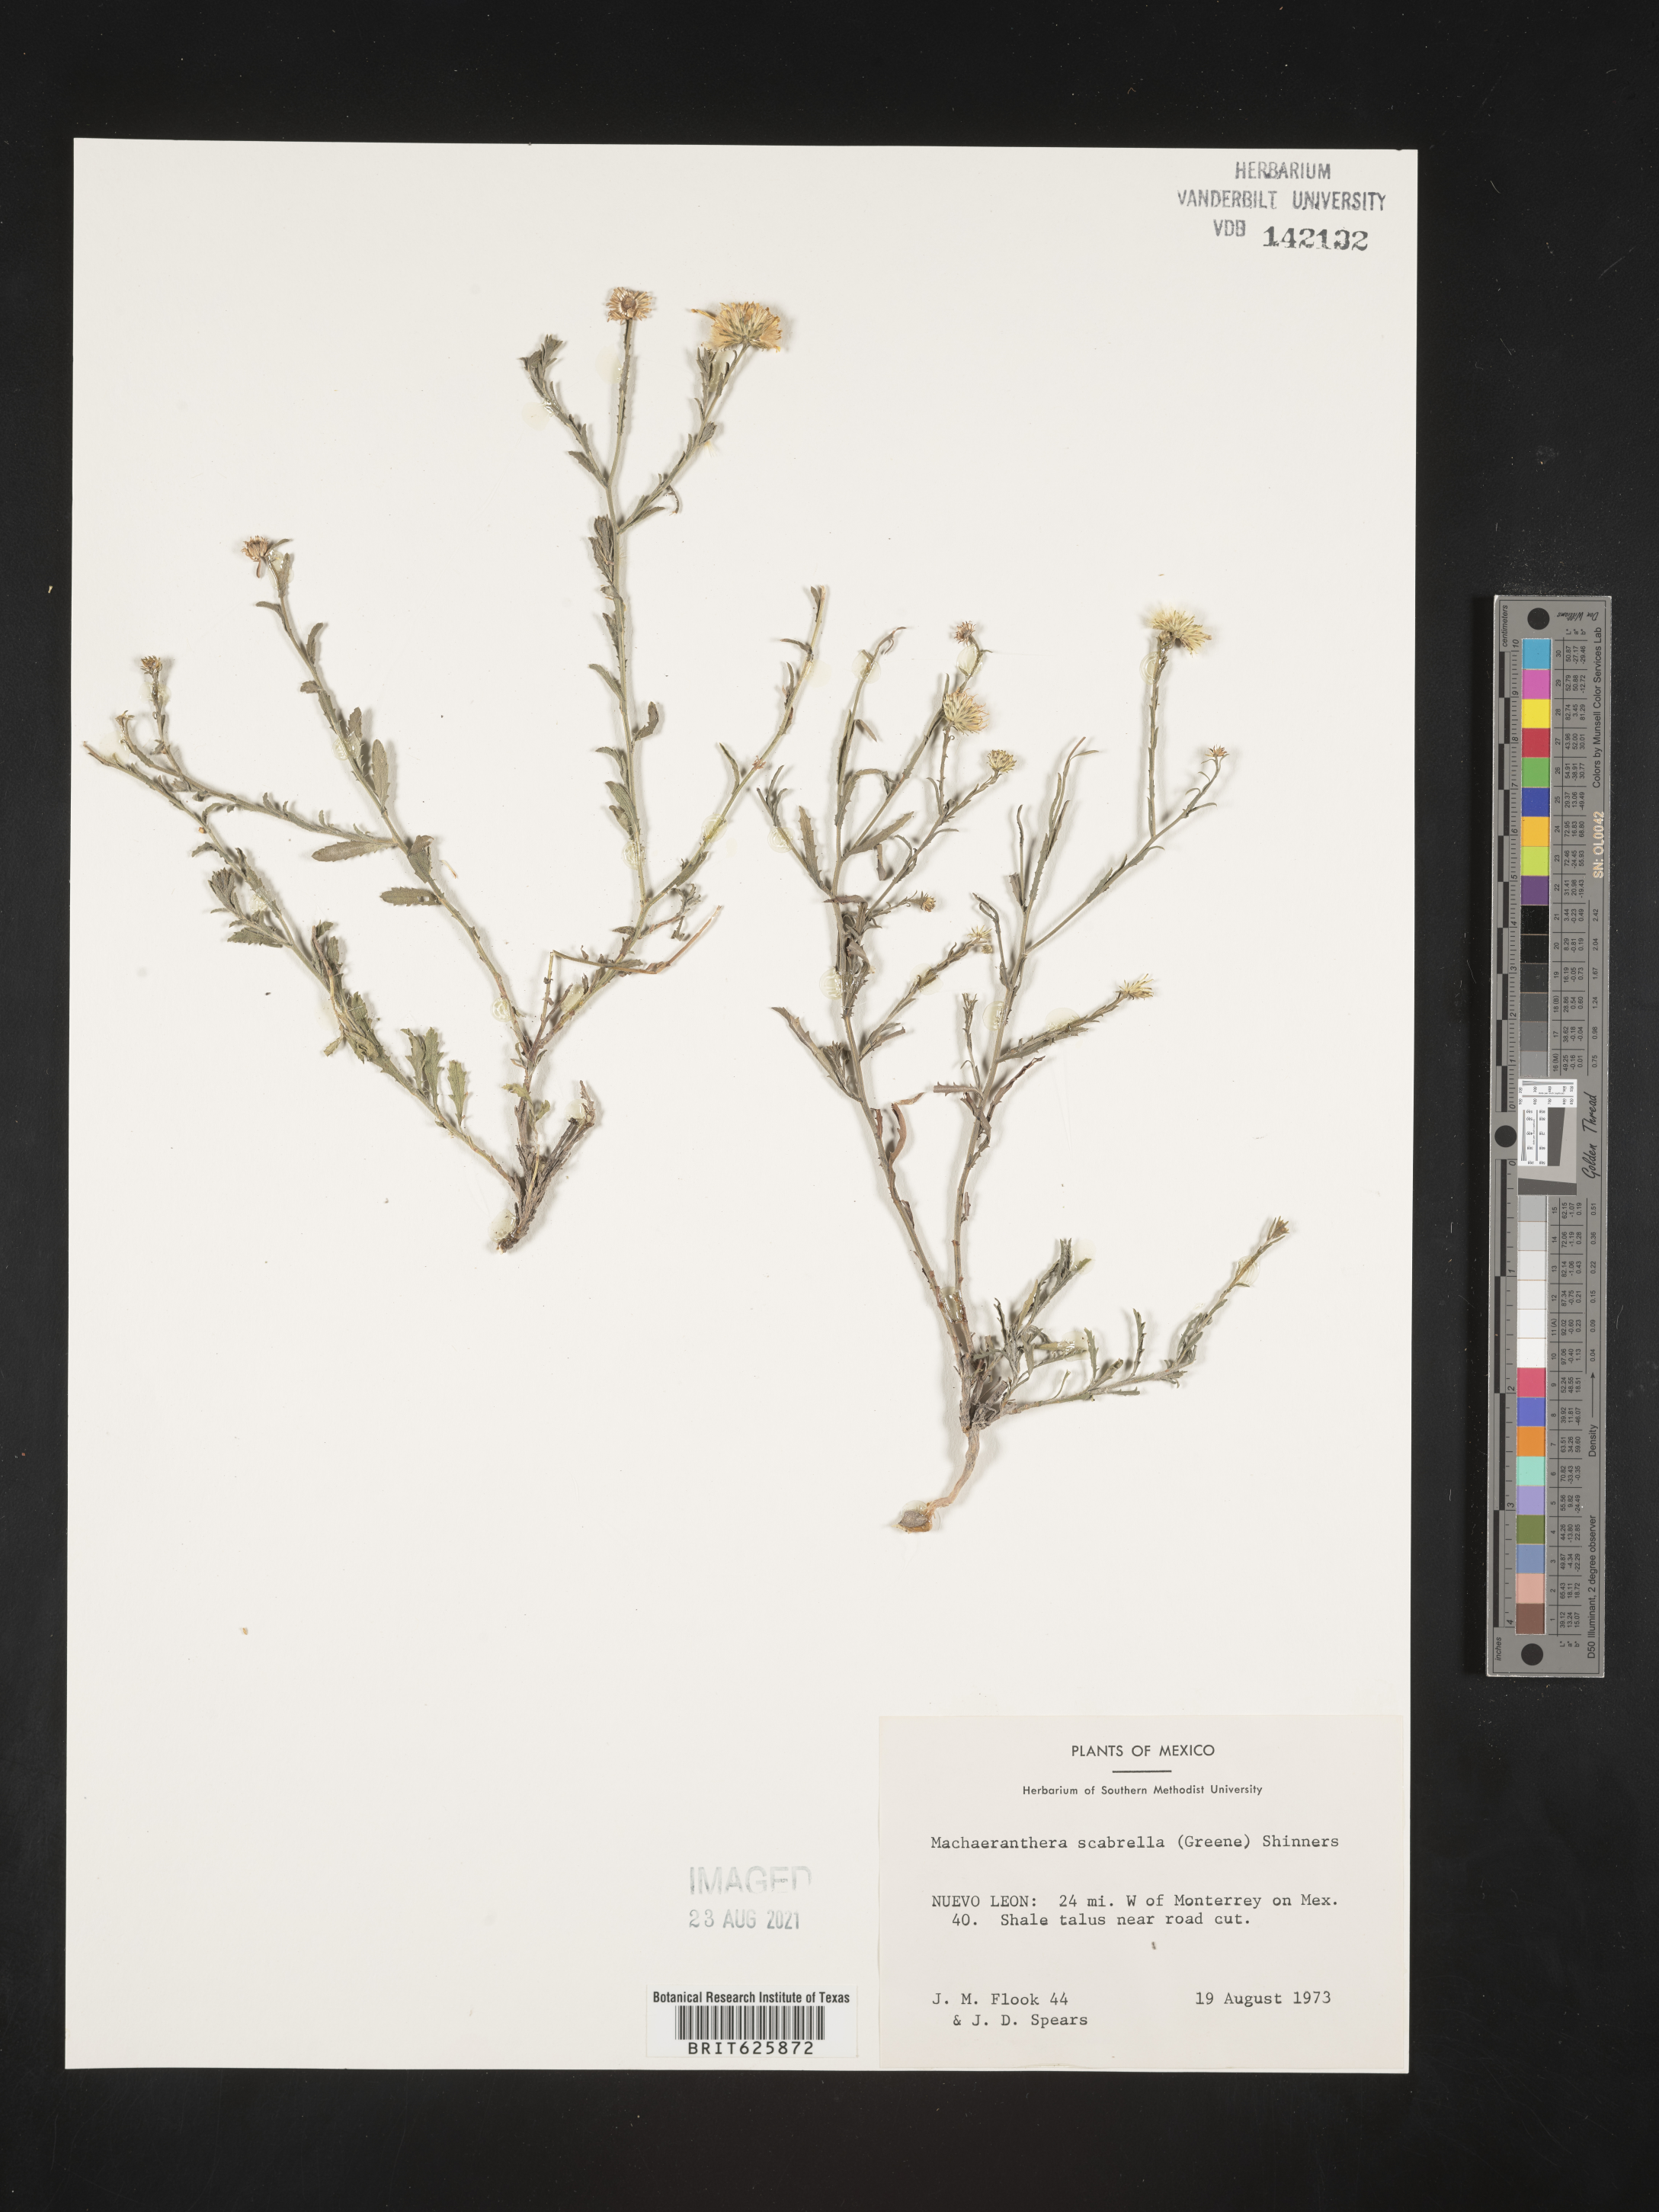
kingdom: Plantae
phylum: Tracheophyta
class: Magnoliopsida
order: Asterales
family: Asteraceae
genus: Machaeranthera
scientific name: Machaeranthera
